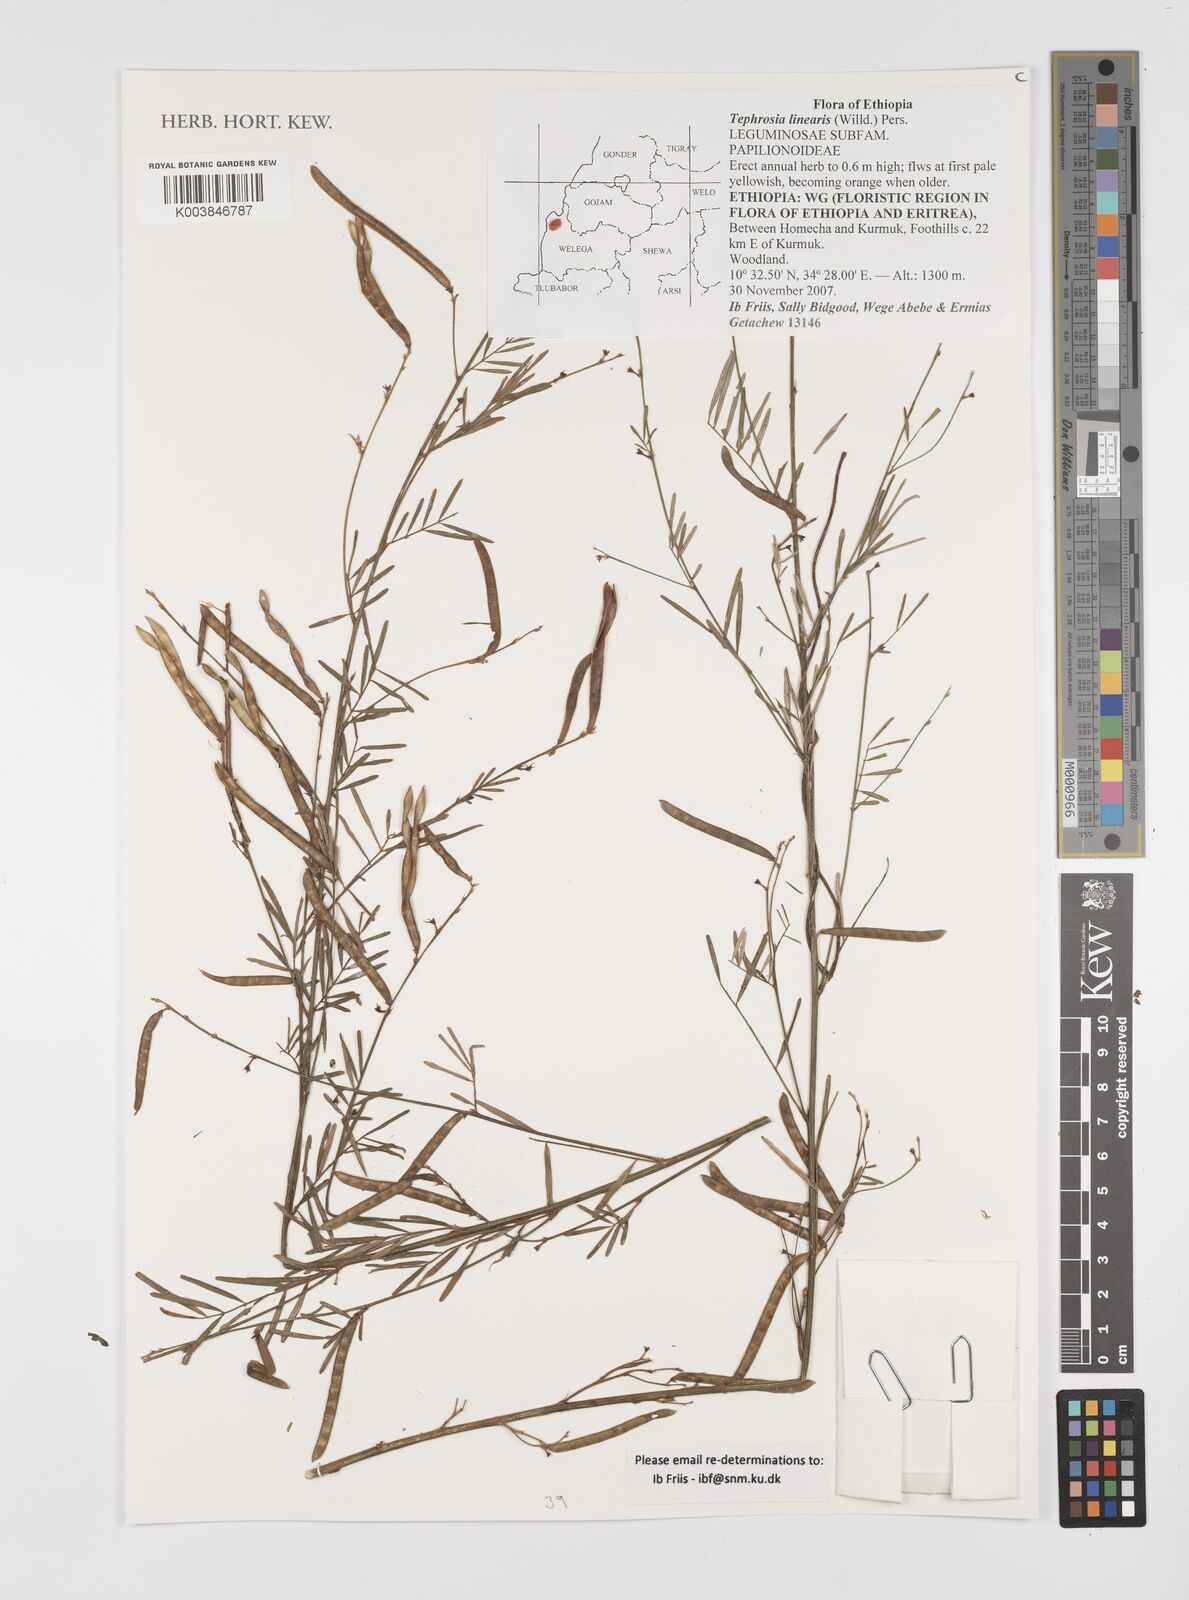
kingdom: Plantae
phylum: Tracheophyta
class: Magnoliopsida
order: Fabales
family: Fabaceae
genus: Tephrosia
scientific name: Tephrosia linearis
